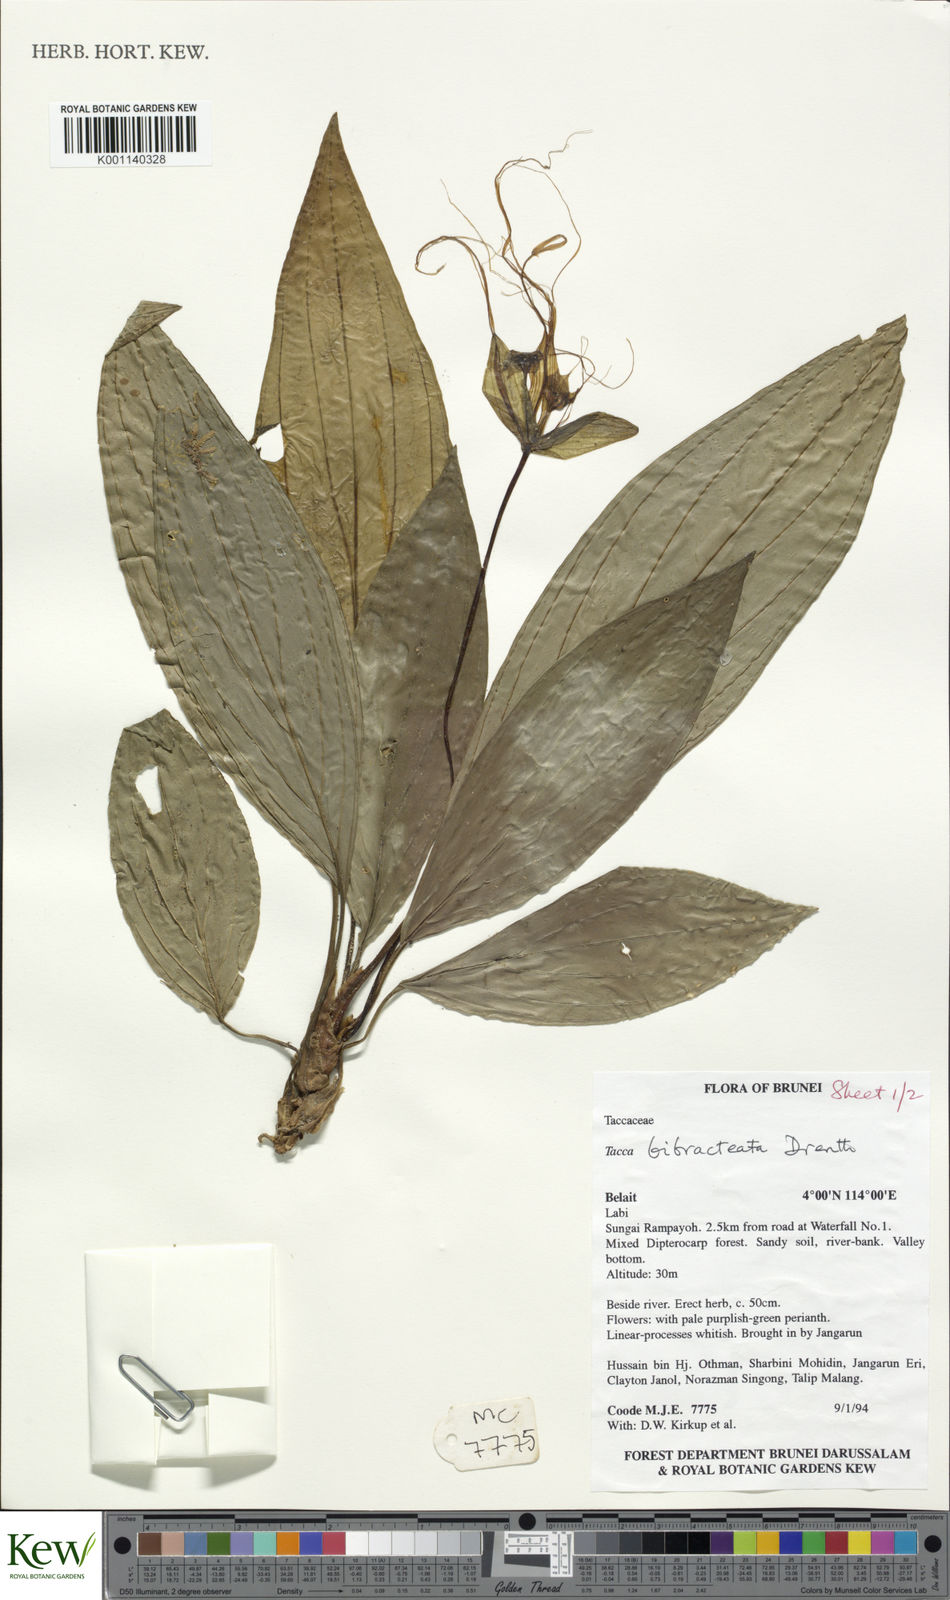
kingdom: Plantae
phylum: Tracheophyta
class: Liliopsida
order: Dioscoreales
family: Dioscoreaceae
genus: Tacca
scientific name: Tacca bibracteata
